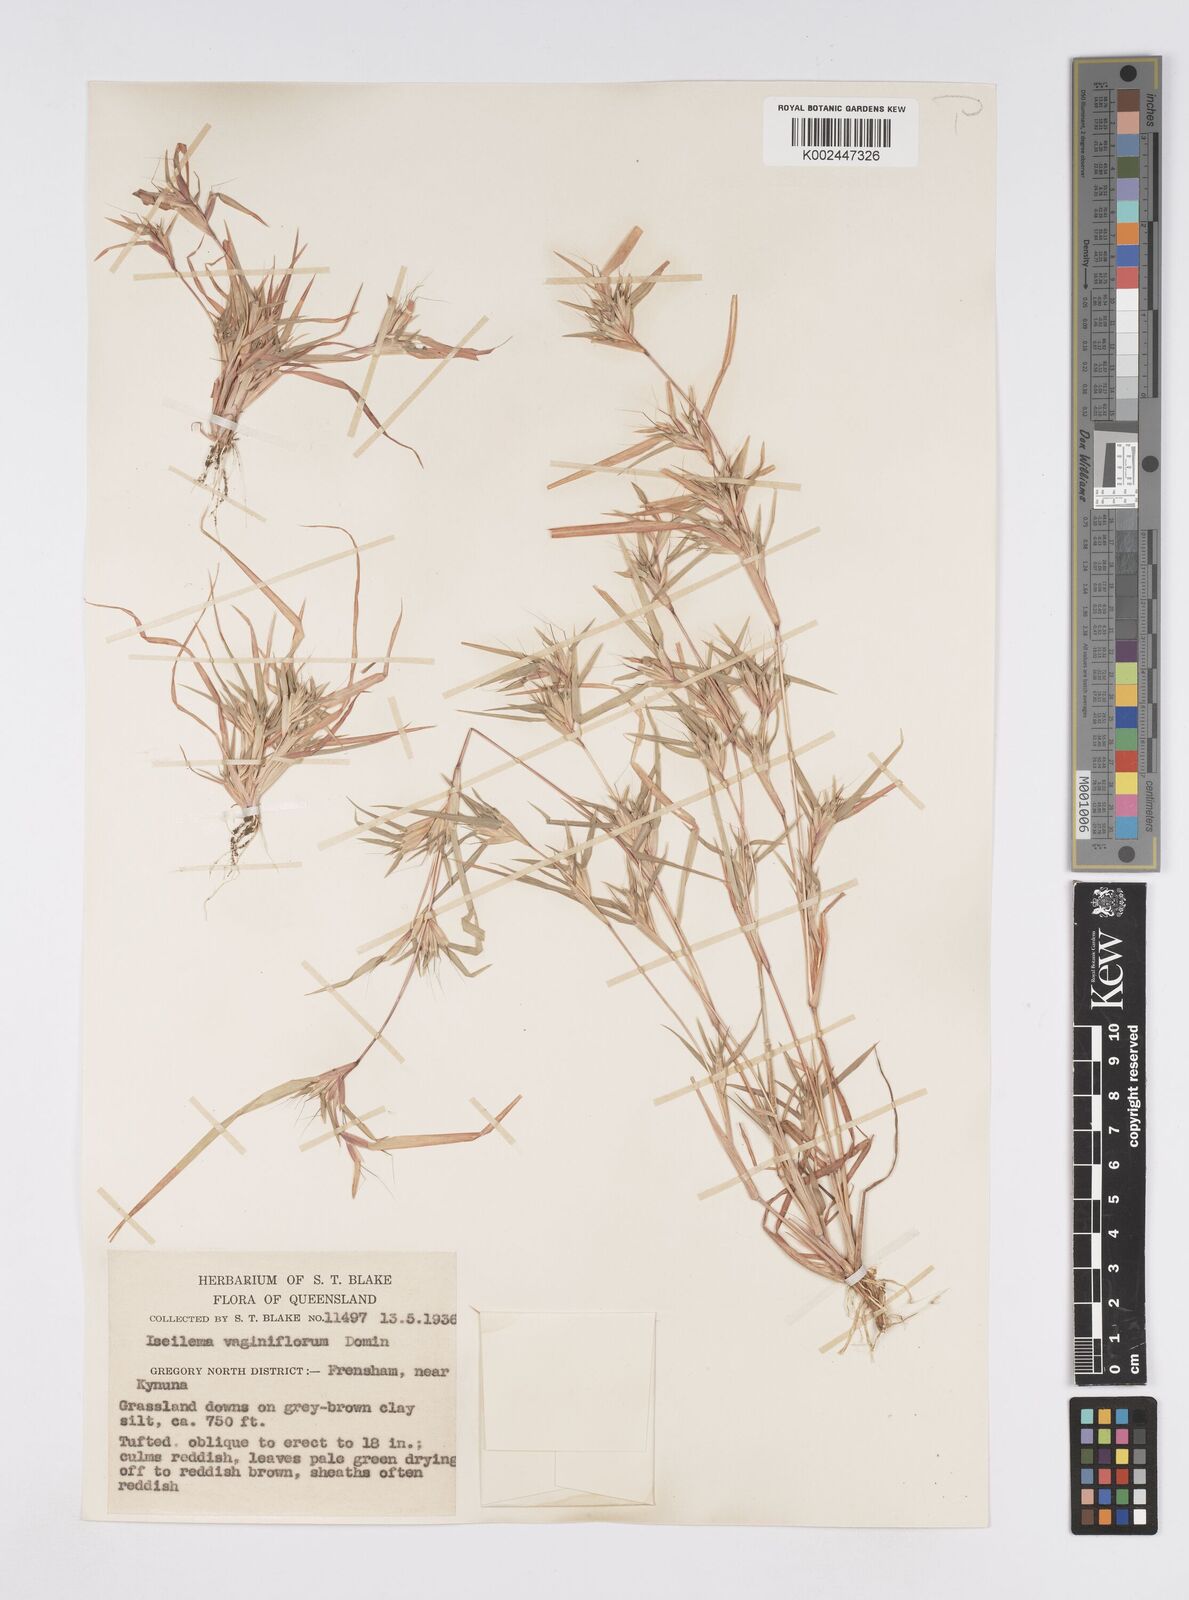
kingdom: Plantae
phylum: Tracheophyta
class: Liliopsida
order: Poales
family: Poaceae
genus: Iseilema
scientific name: Iseilema vaginiflorum
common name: Red flinders grass
